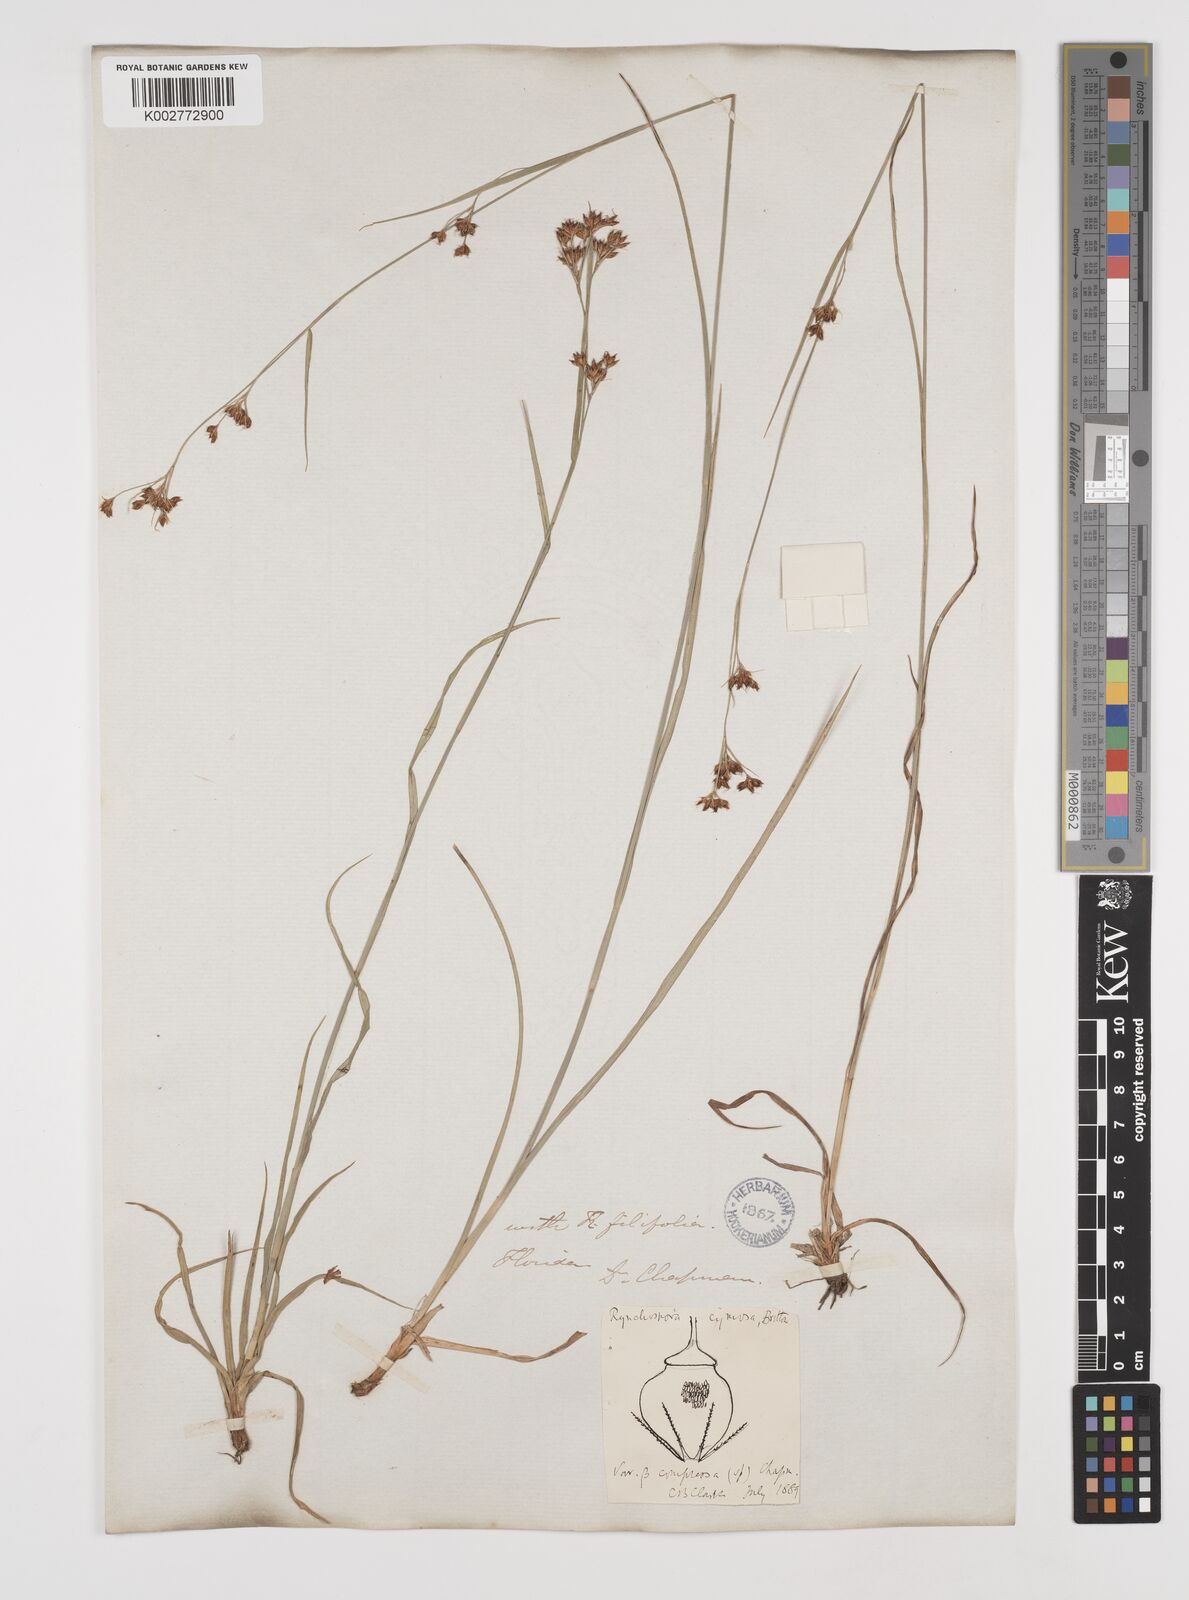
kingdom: Plantae
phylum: Tracheophyta
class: Liliopsida
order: Poales
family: Cyperaceae
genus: Scirpus
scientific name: Scirpus polyphyllus
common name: Leafy bulrush
